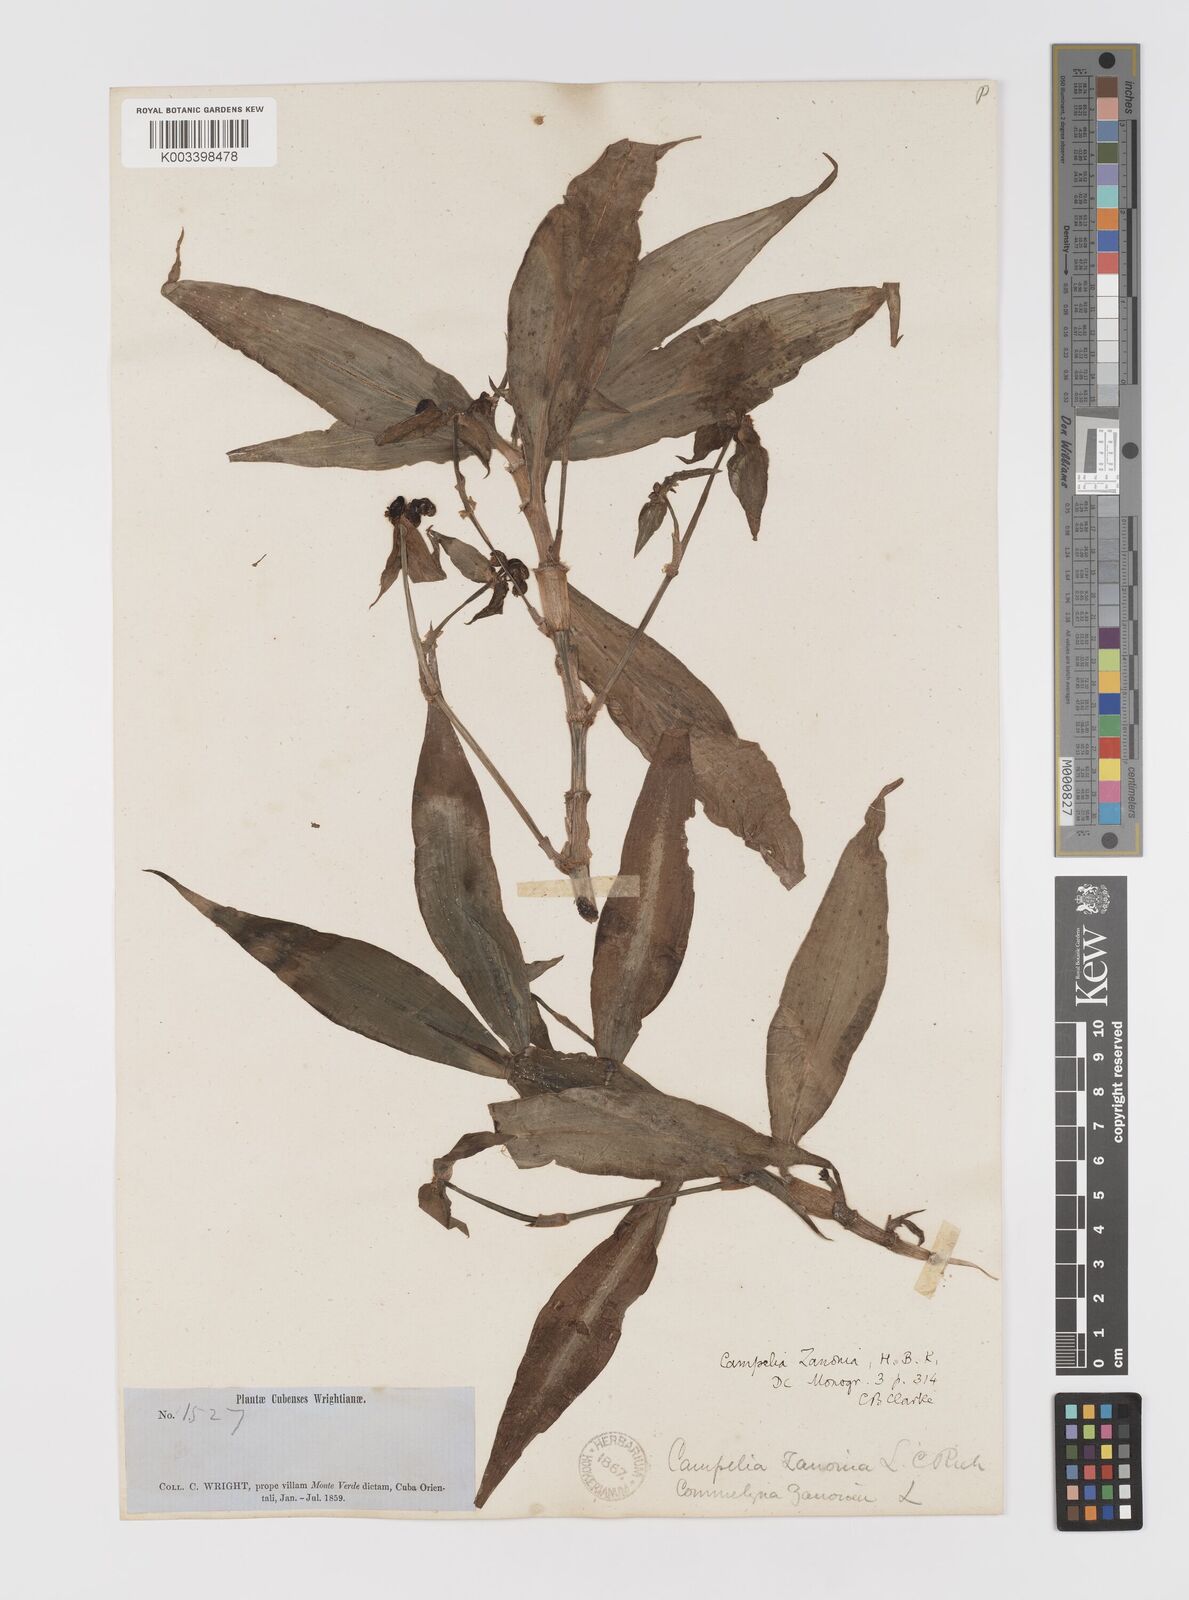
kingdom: Plantae
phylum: Tracheophyta
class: Liliopsida
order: Commelinales
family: Commelinaceae
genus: Tradescantia
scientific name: Tradescantia zanonia
